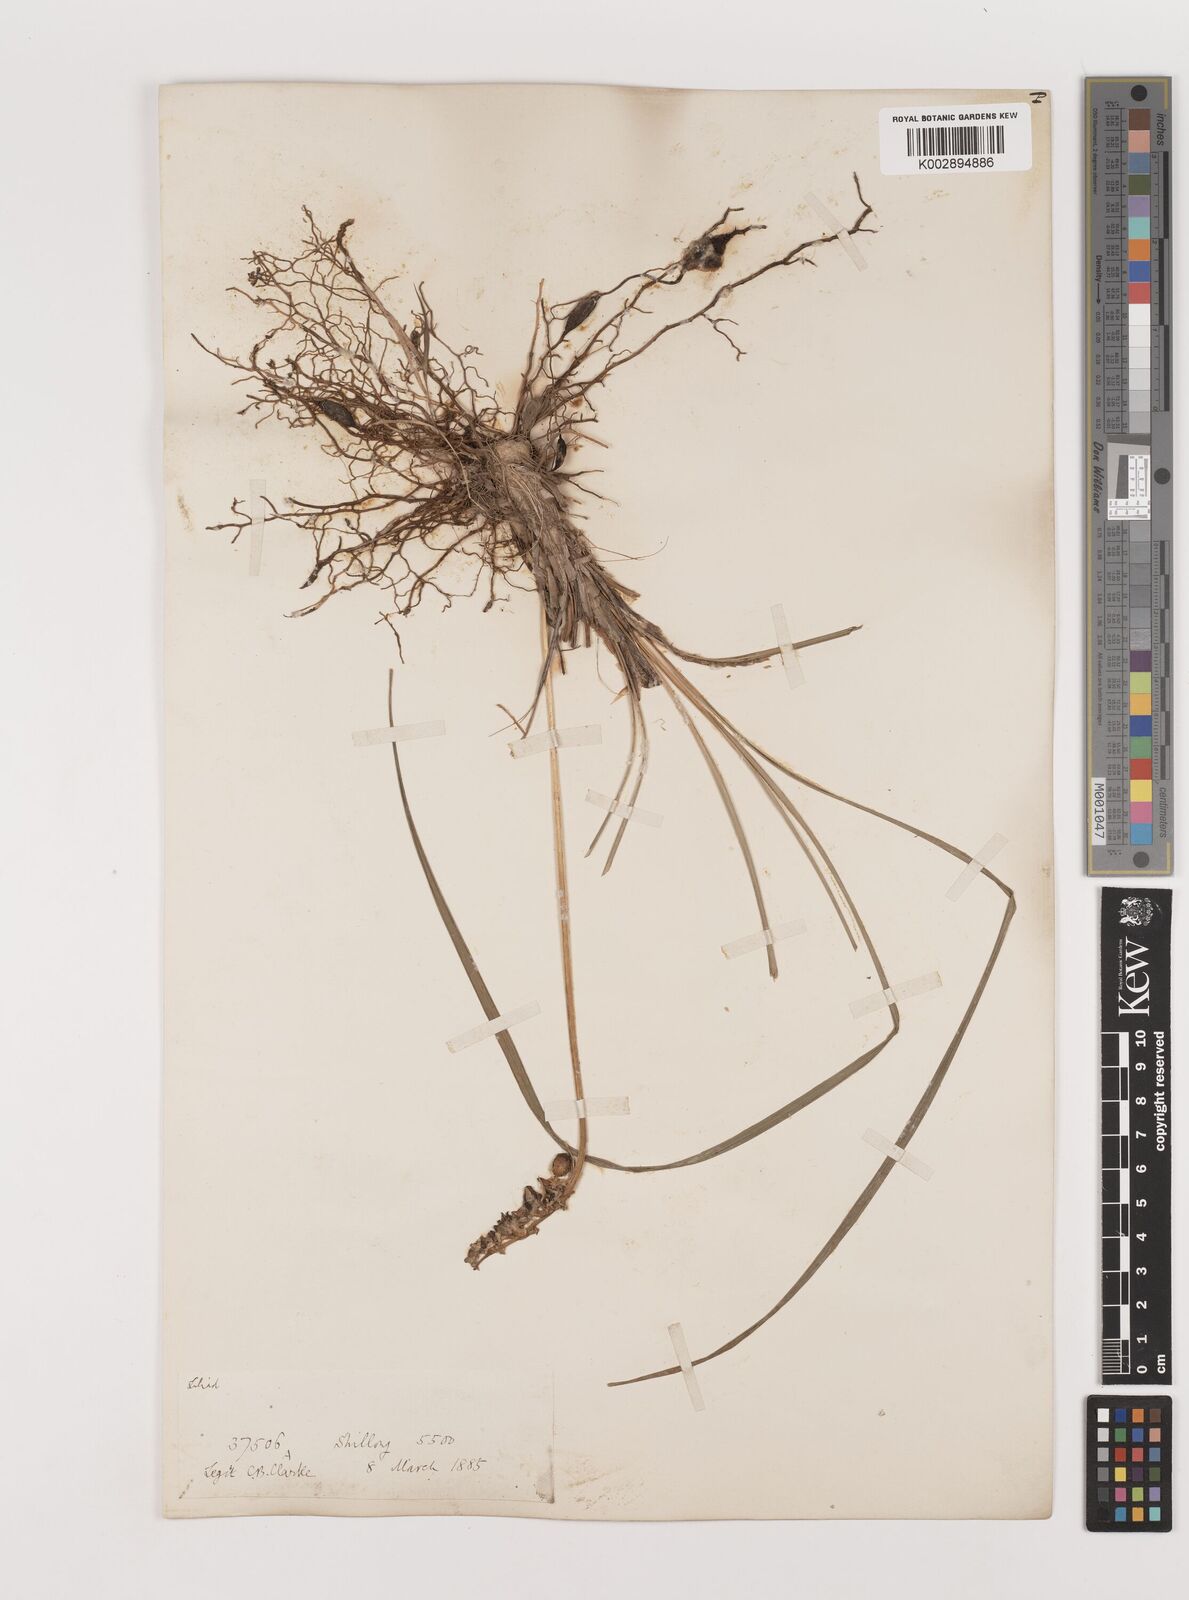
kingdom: Plantae
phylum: Tracheophyta
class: Liliopsida
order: Asparagales
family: Asparagaceae
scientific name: Asparagaceae
